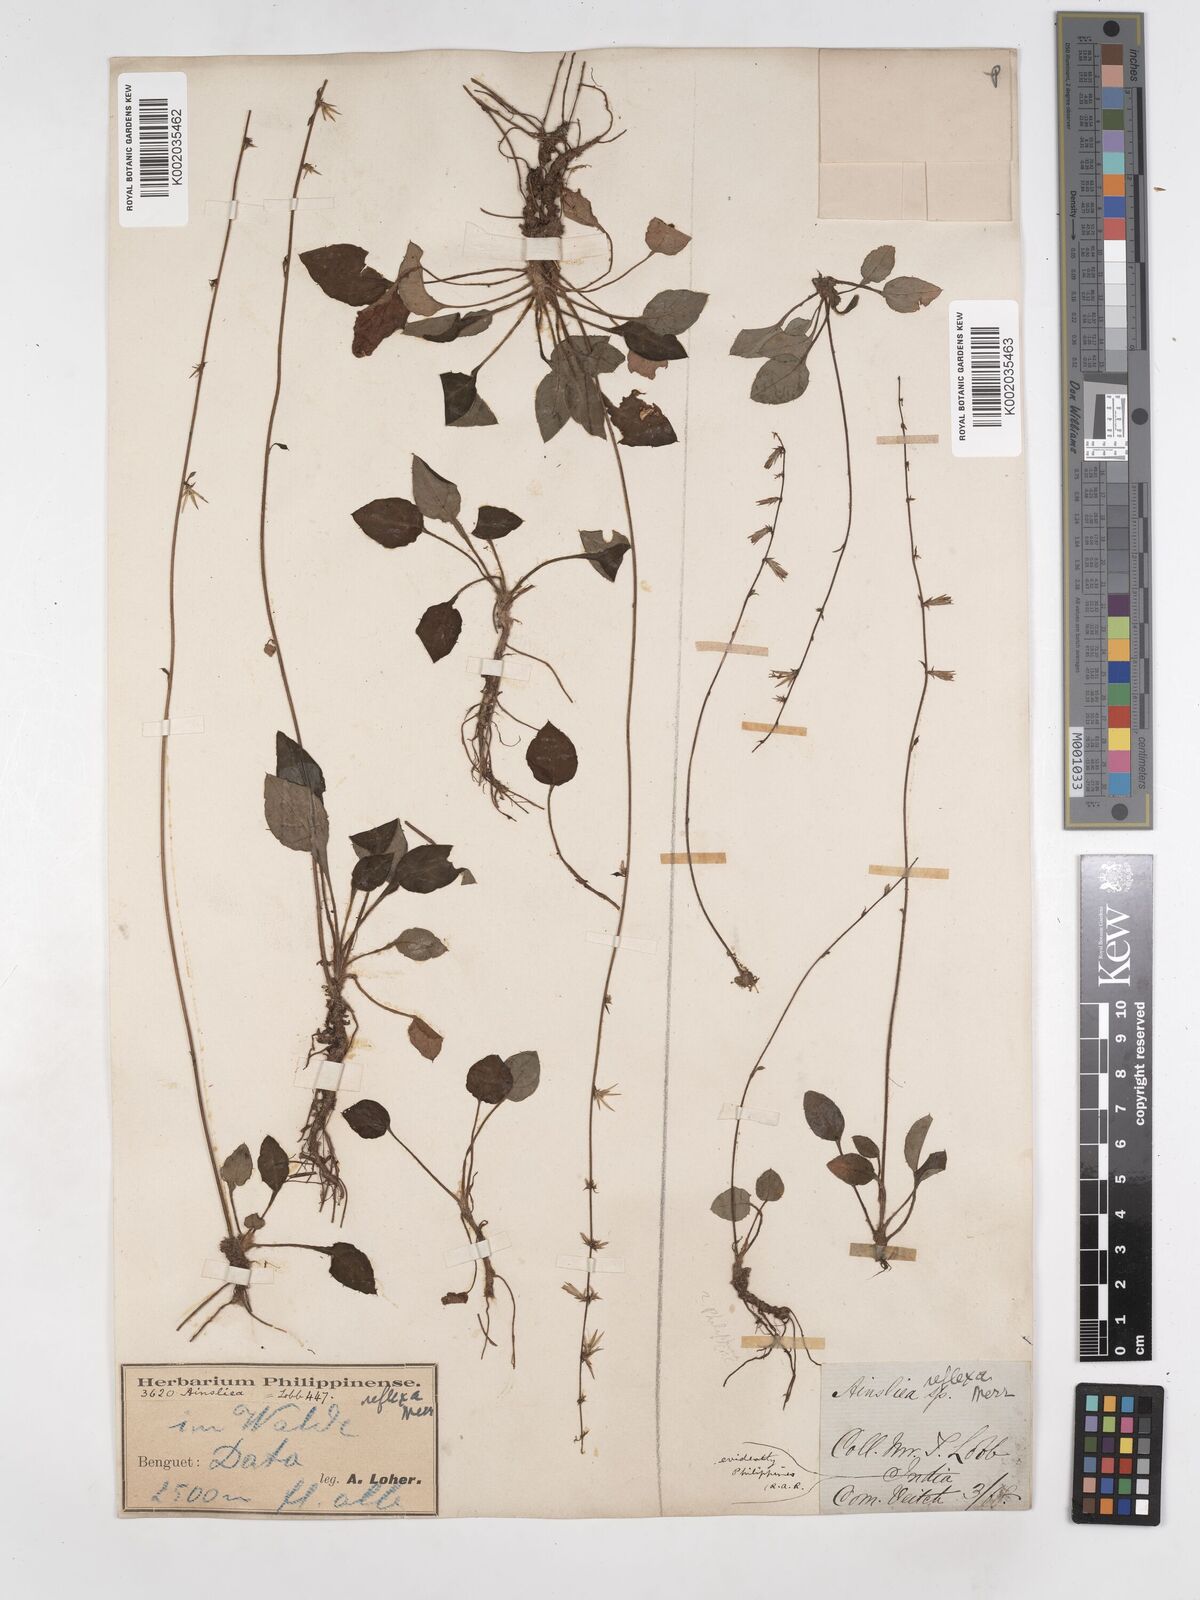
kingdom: Plantae
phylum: Tracheophyta
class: Magnoliopsida
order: Asterales
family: Asteraceae
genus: Ainsliaea
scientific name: Ainsliaea reflexa
